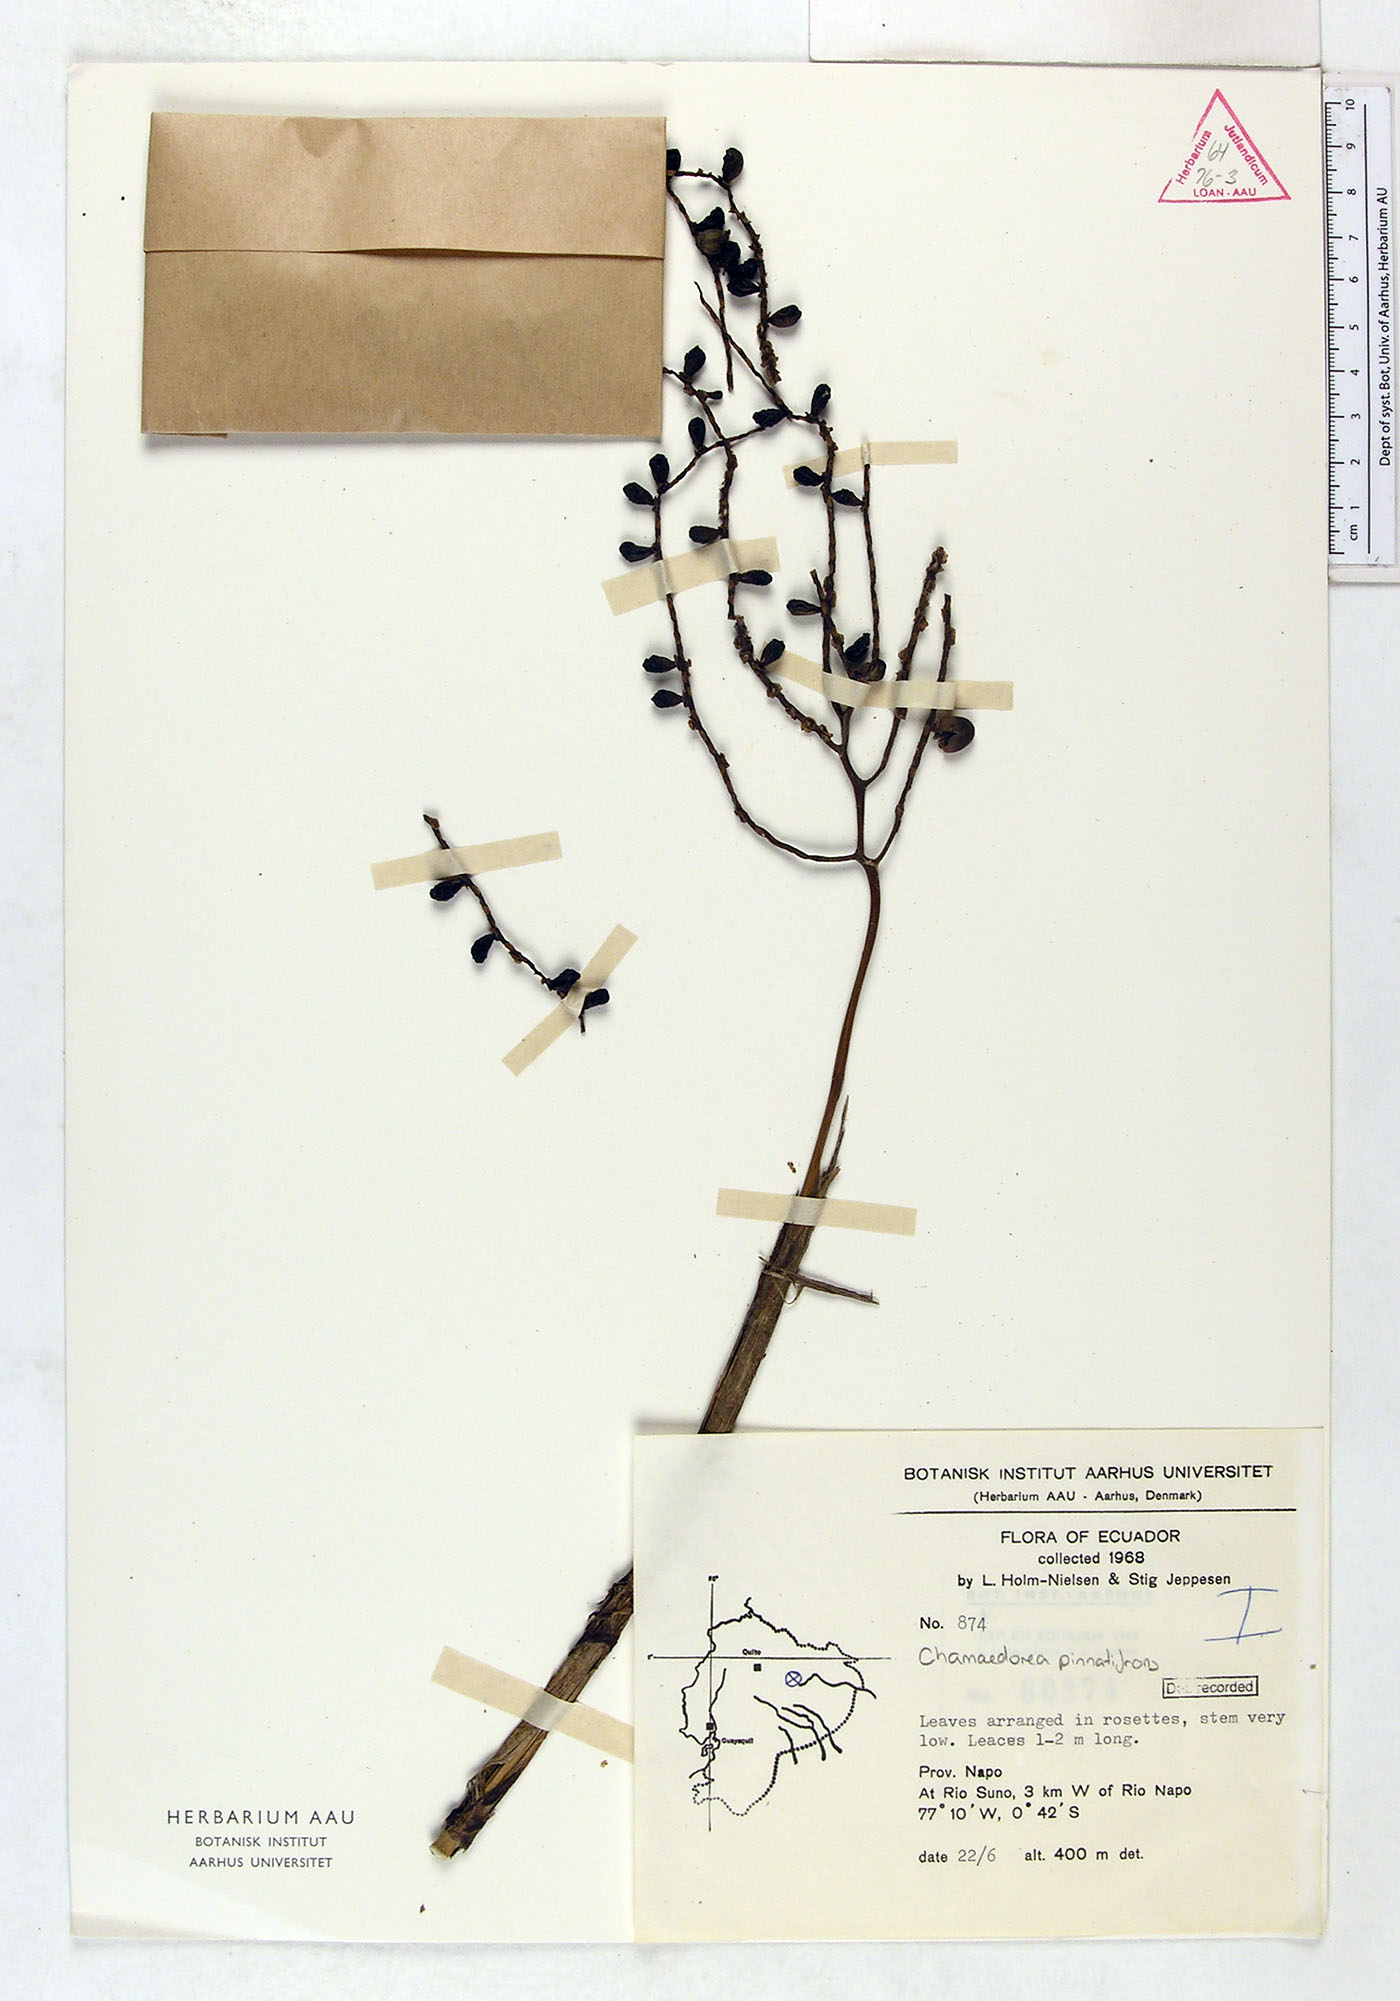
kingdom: Plantae
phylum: Tracheophyta
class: Liliopsida
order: Arecales
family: Arecaceae
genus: Chamaedorea
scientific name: Chamaedorea pinnatifrons
